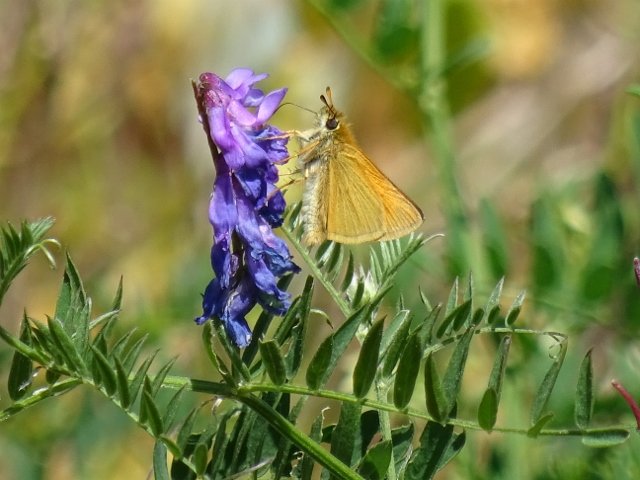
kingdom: Animalia
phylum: Arthropoda
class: Insecta
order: Lepidoptera
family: Hesperiidae
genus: Thymelicus
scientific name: Thymelicus lineola
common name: European Skipper
